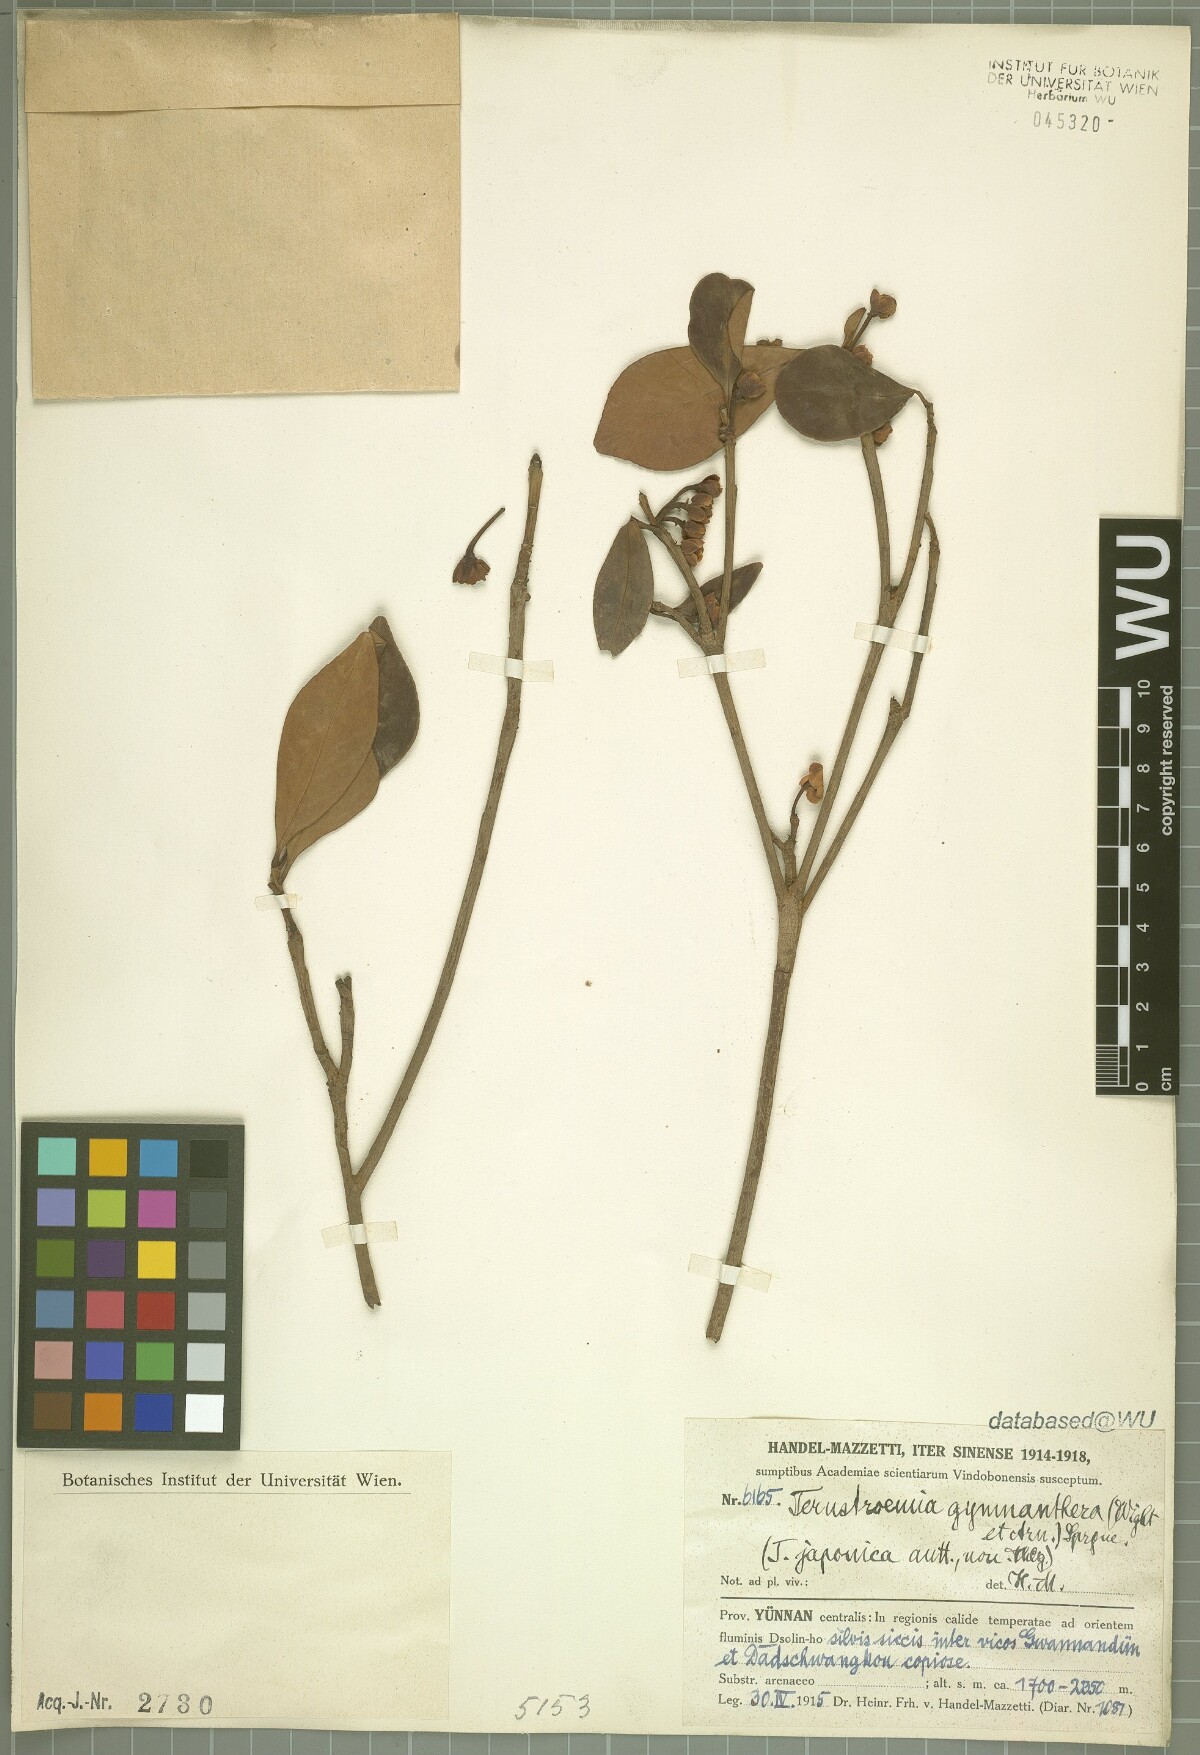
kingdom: Plantae
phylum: Tracheophyta
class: Magnoliopsida
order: Ericales
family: Pentaphylacaceae
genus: Ternstroemia
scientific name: Ternstroemia gymnanthera
